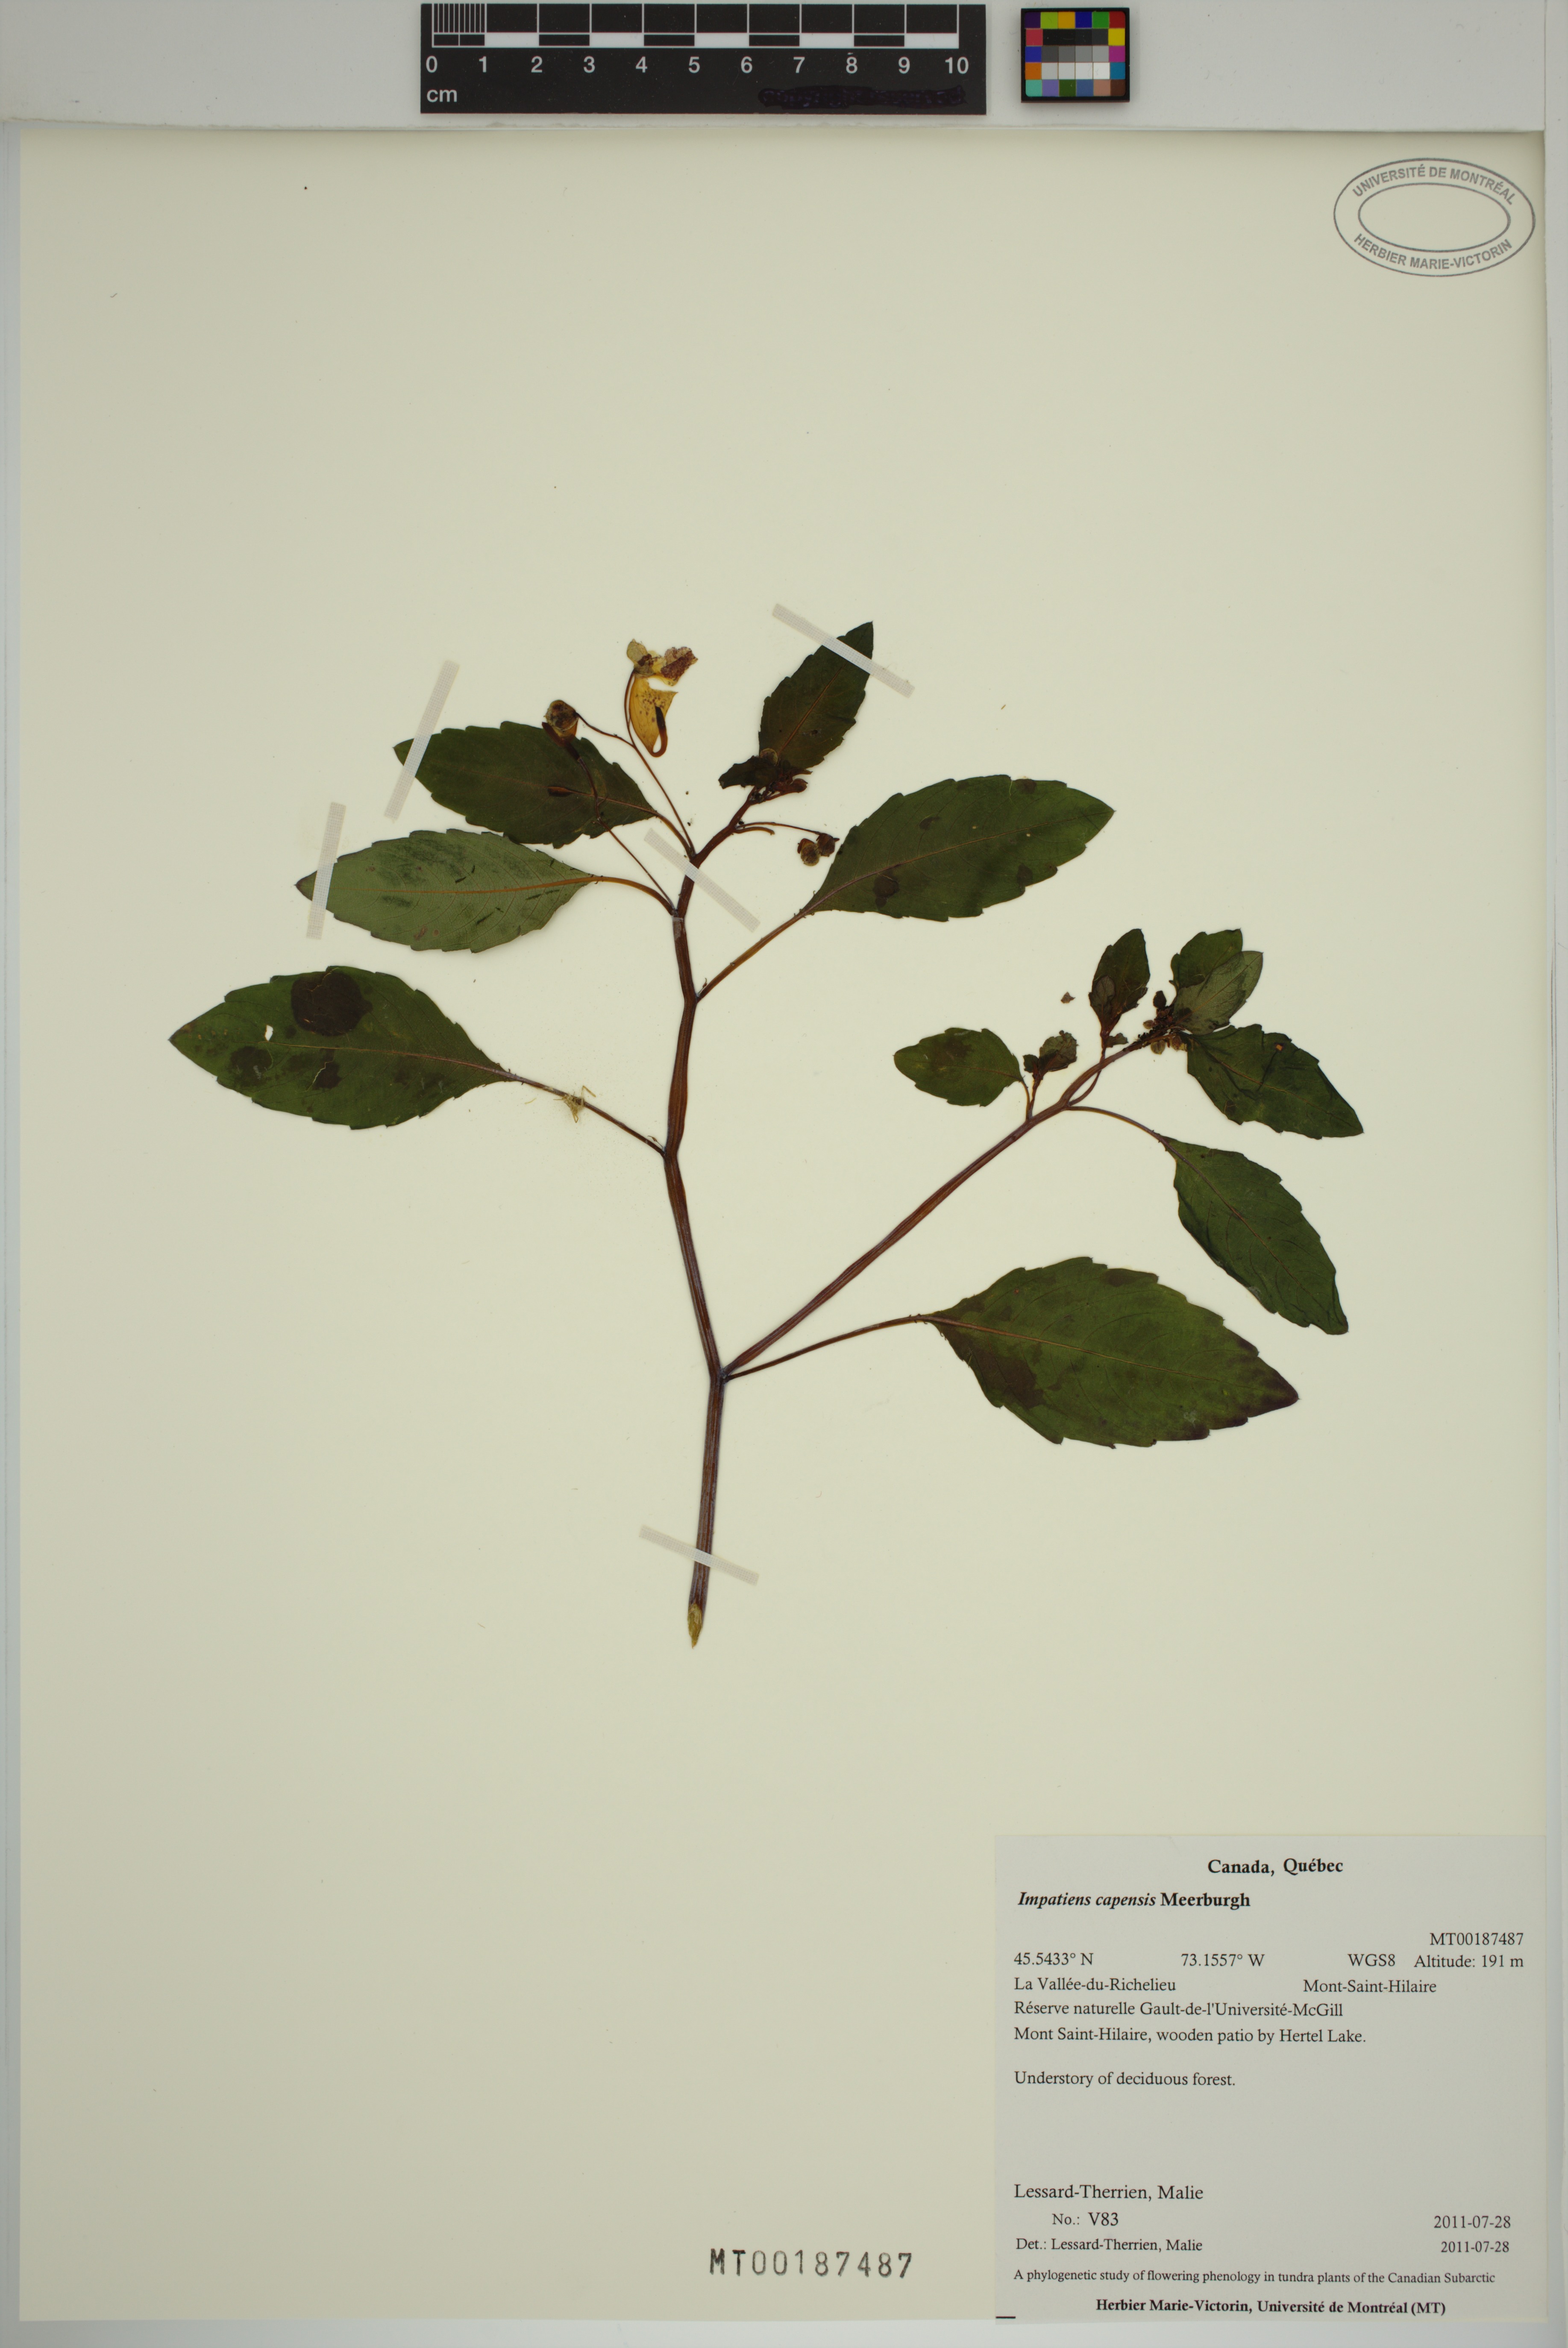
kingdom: Plantae
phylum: Tracheophyta
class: Magnoliopsida
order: Ericales
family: Balsaminaceae
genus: Impatiens
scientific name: Impatiens capensis
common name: Orange balsam
